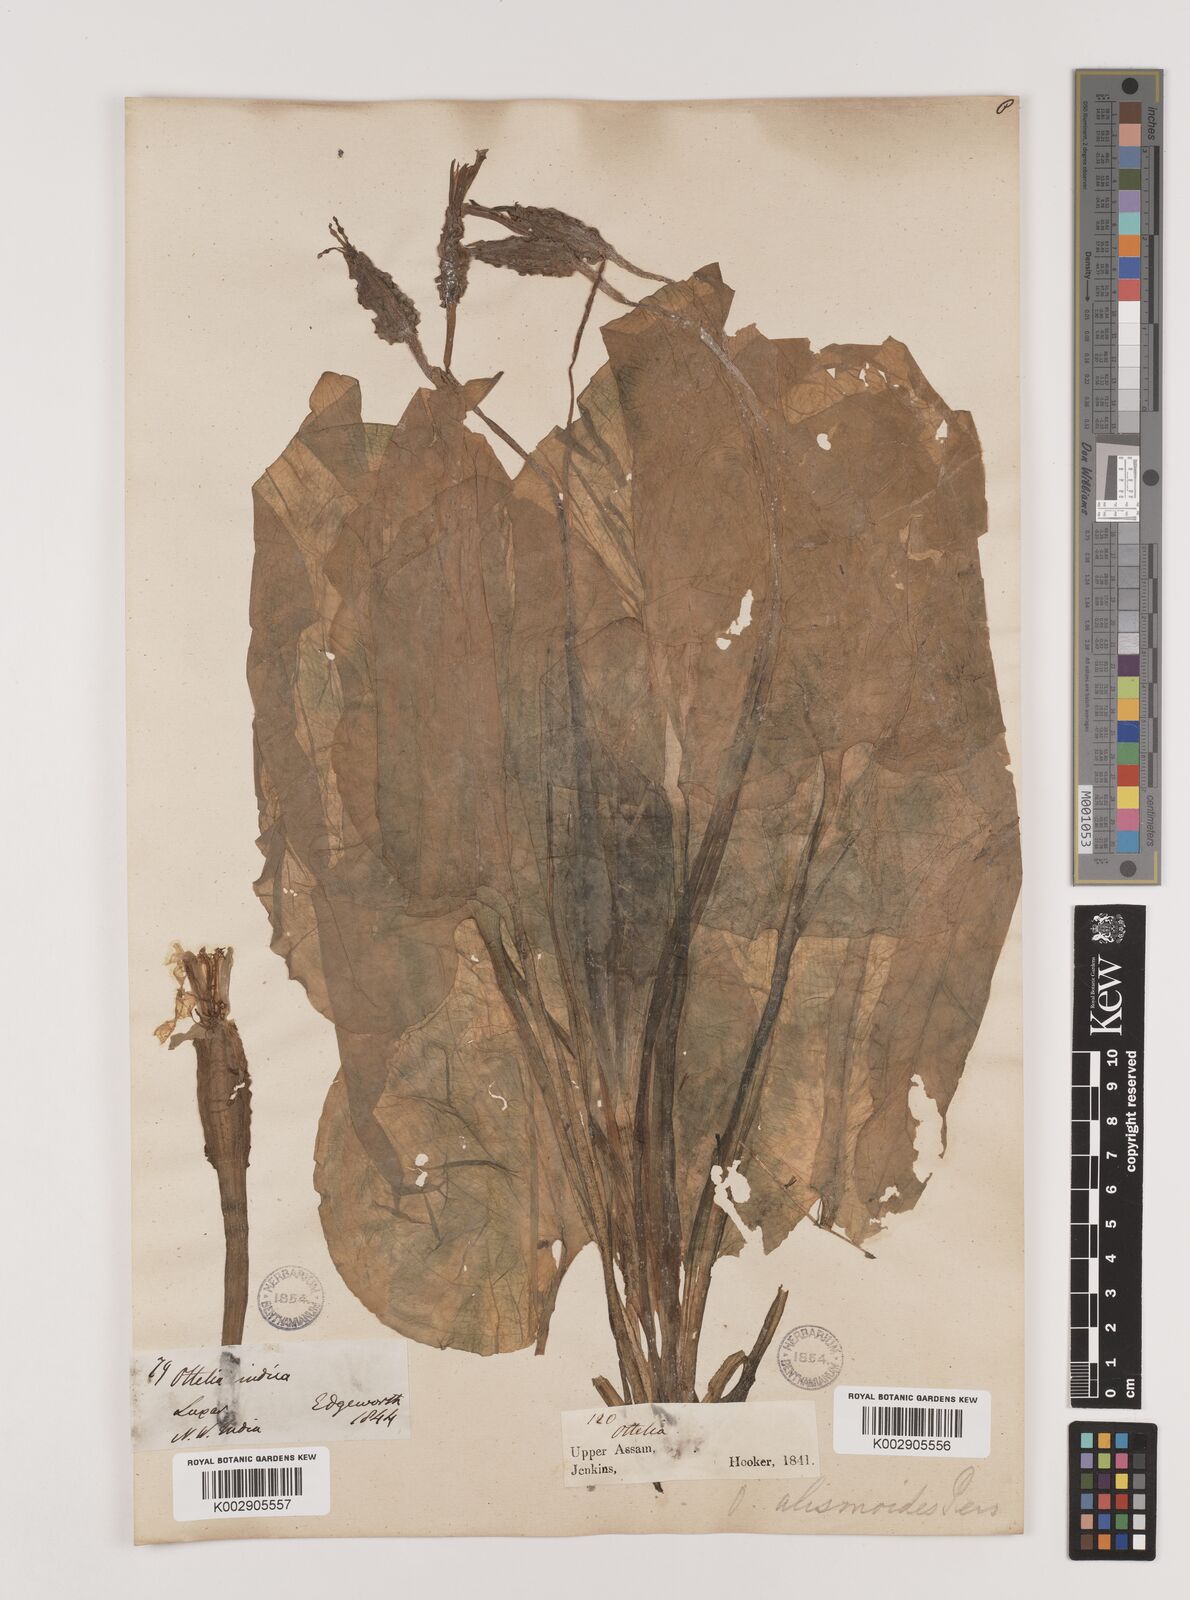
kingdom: Plantae
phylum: Tracheophyta
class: Liliopsida
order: Alismatales
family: Hydrocharitaceae
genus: Ottelia
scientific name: Ottelia alismoides
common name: Duck-lettuce
